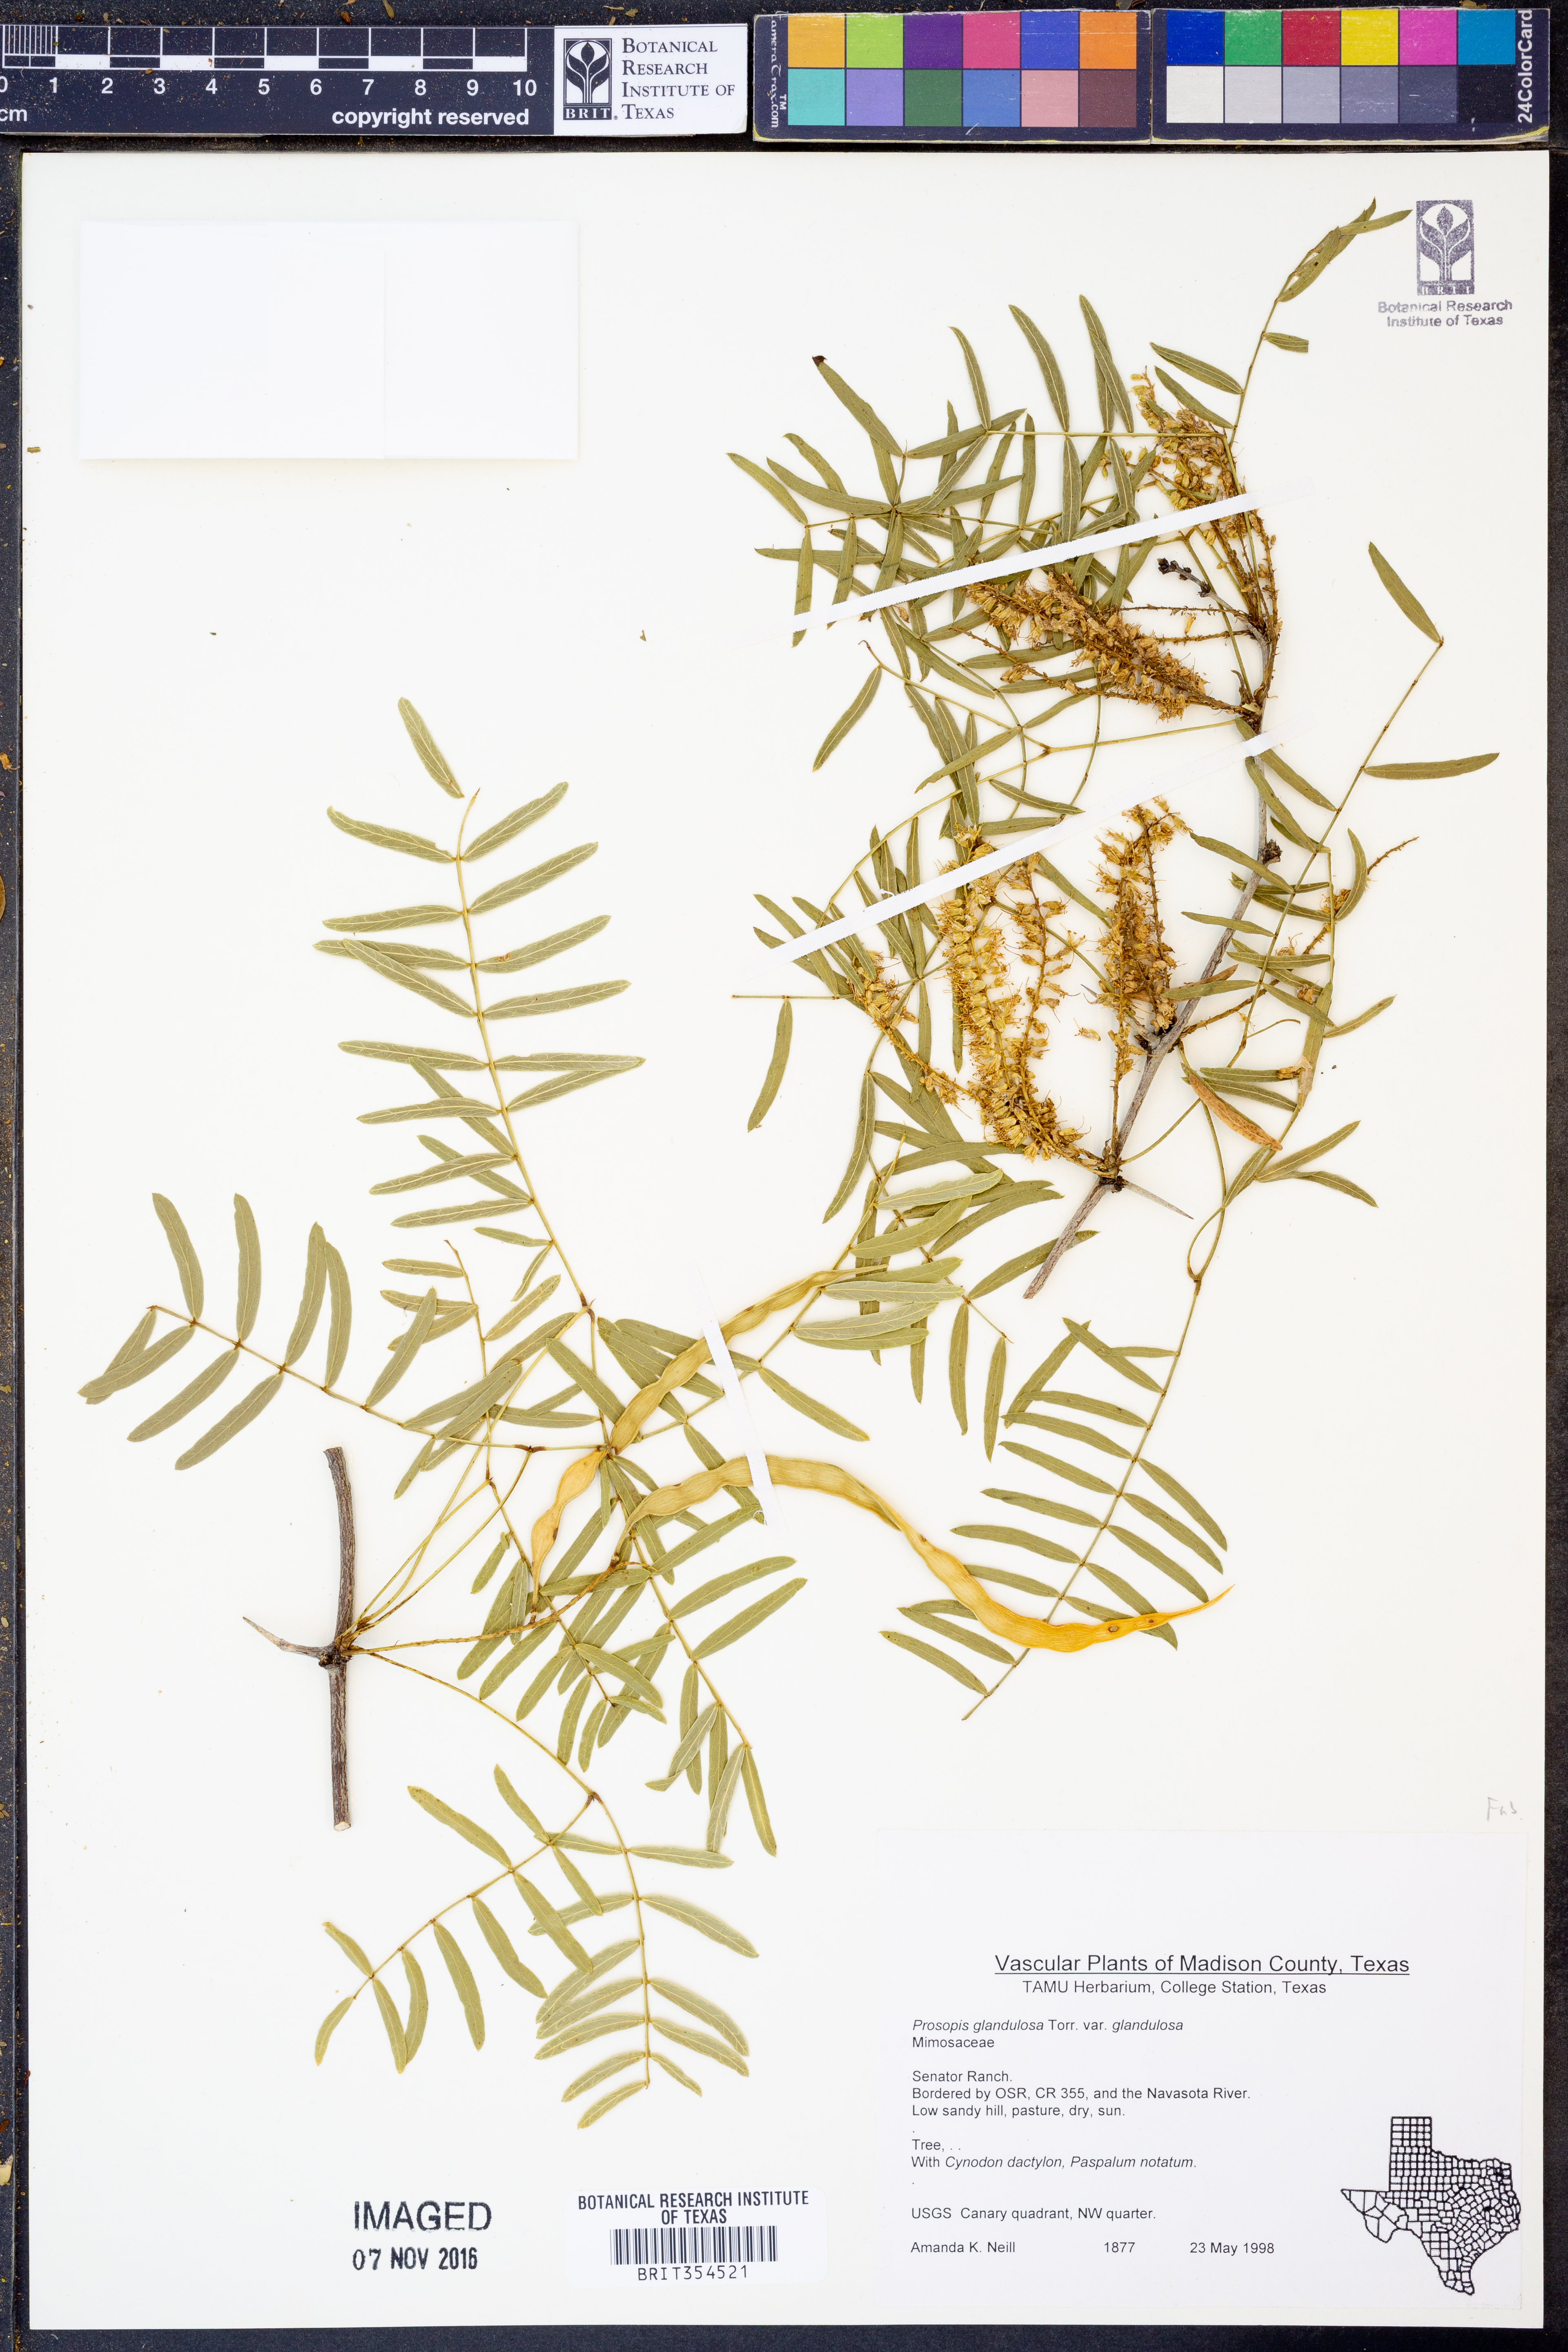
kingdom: Plantae
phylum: Tracheophyta
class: Magnoliopsida
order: Fabales
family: Fabaceae
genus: Prosopis
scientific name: Prosopis glandulosa
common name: Honey mesquite
